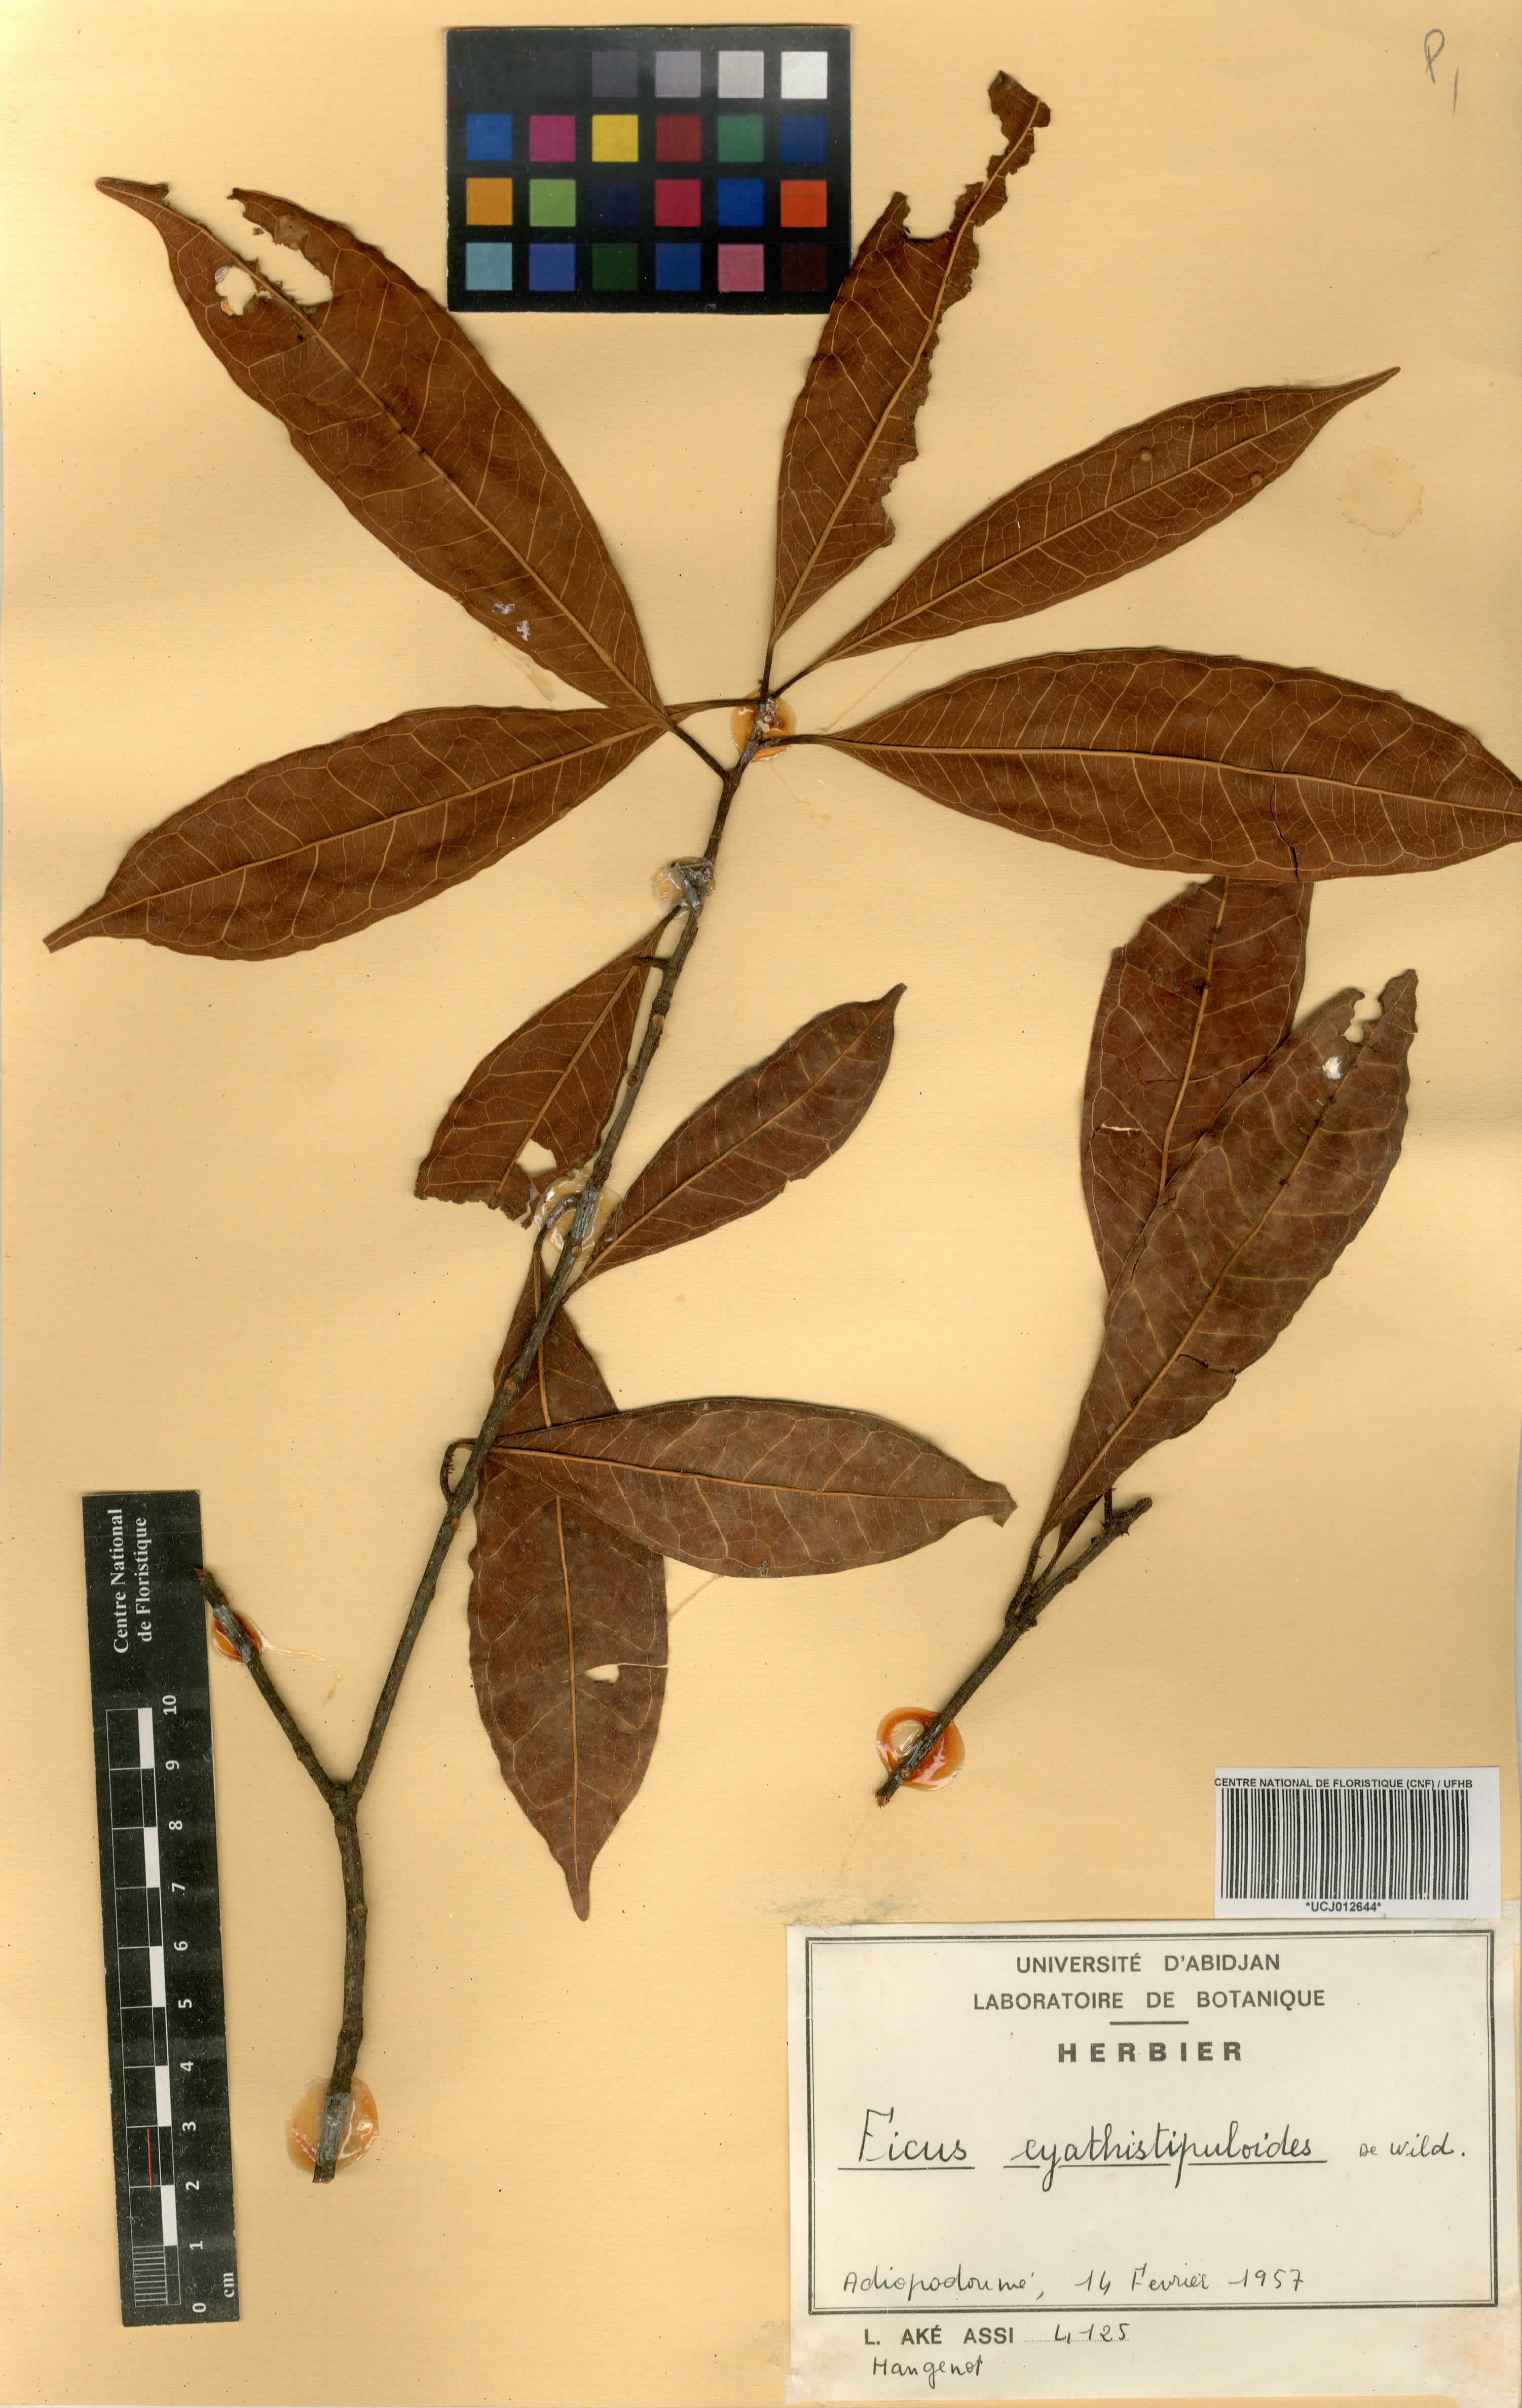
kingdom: Plantae
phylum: Tracheophyta
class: Magnoliopsida
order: Rosales
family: Moraceae
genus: Ficus
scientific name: Ficus cyathistipuloides
